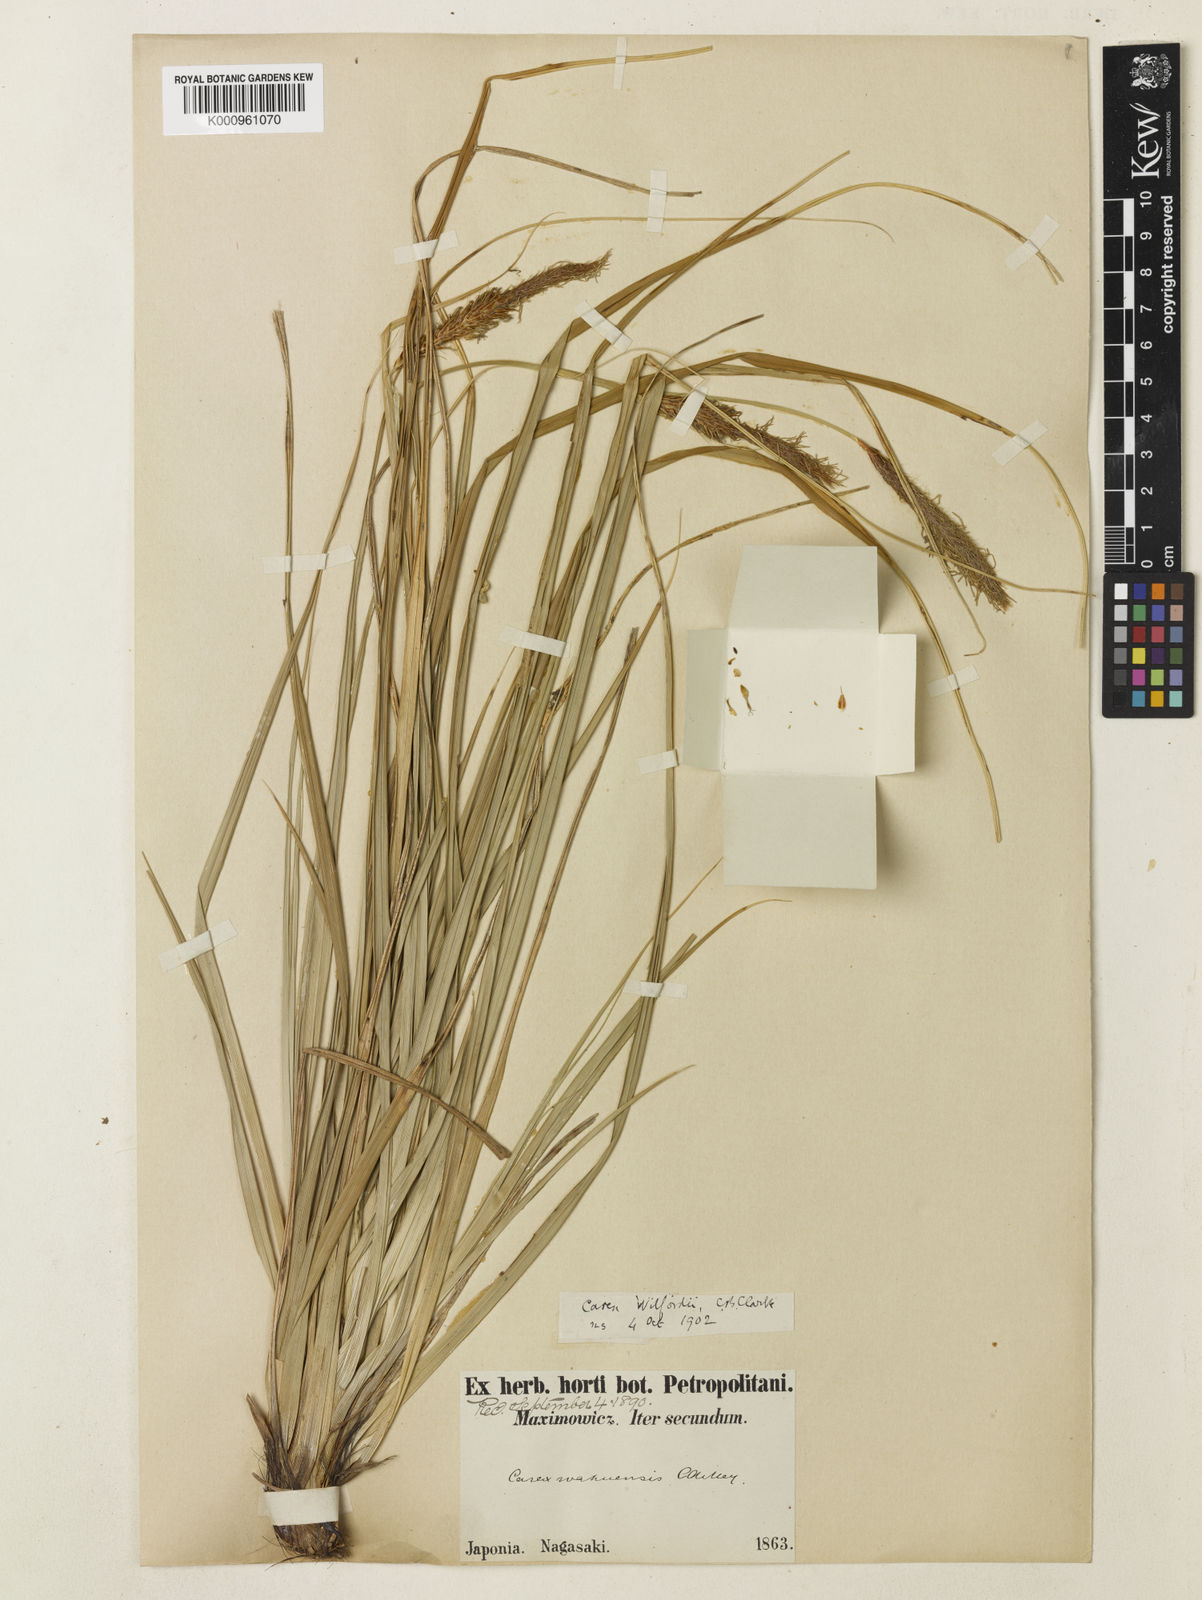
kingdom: Plantae
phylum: Tracheophyta
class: Liliopsida
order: Poales
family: Cyperaceae
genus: Carex
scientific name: Carex wahuensis
